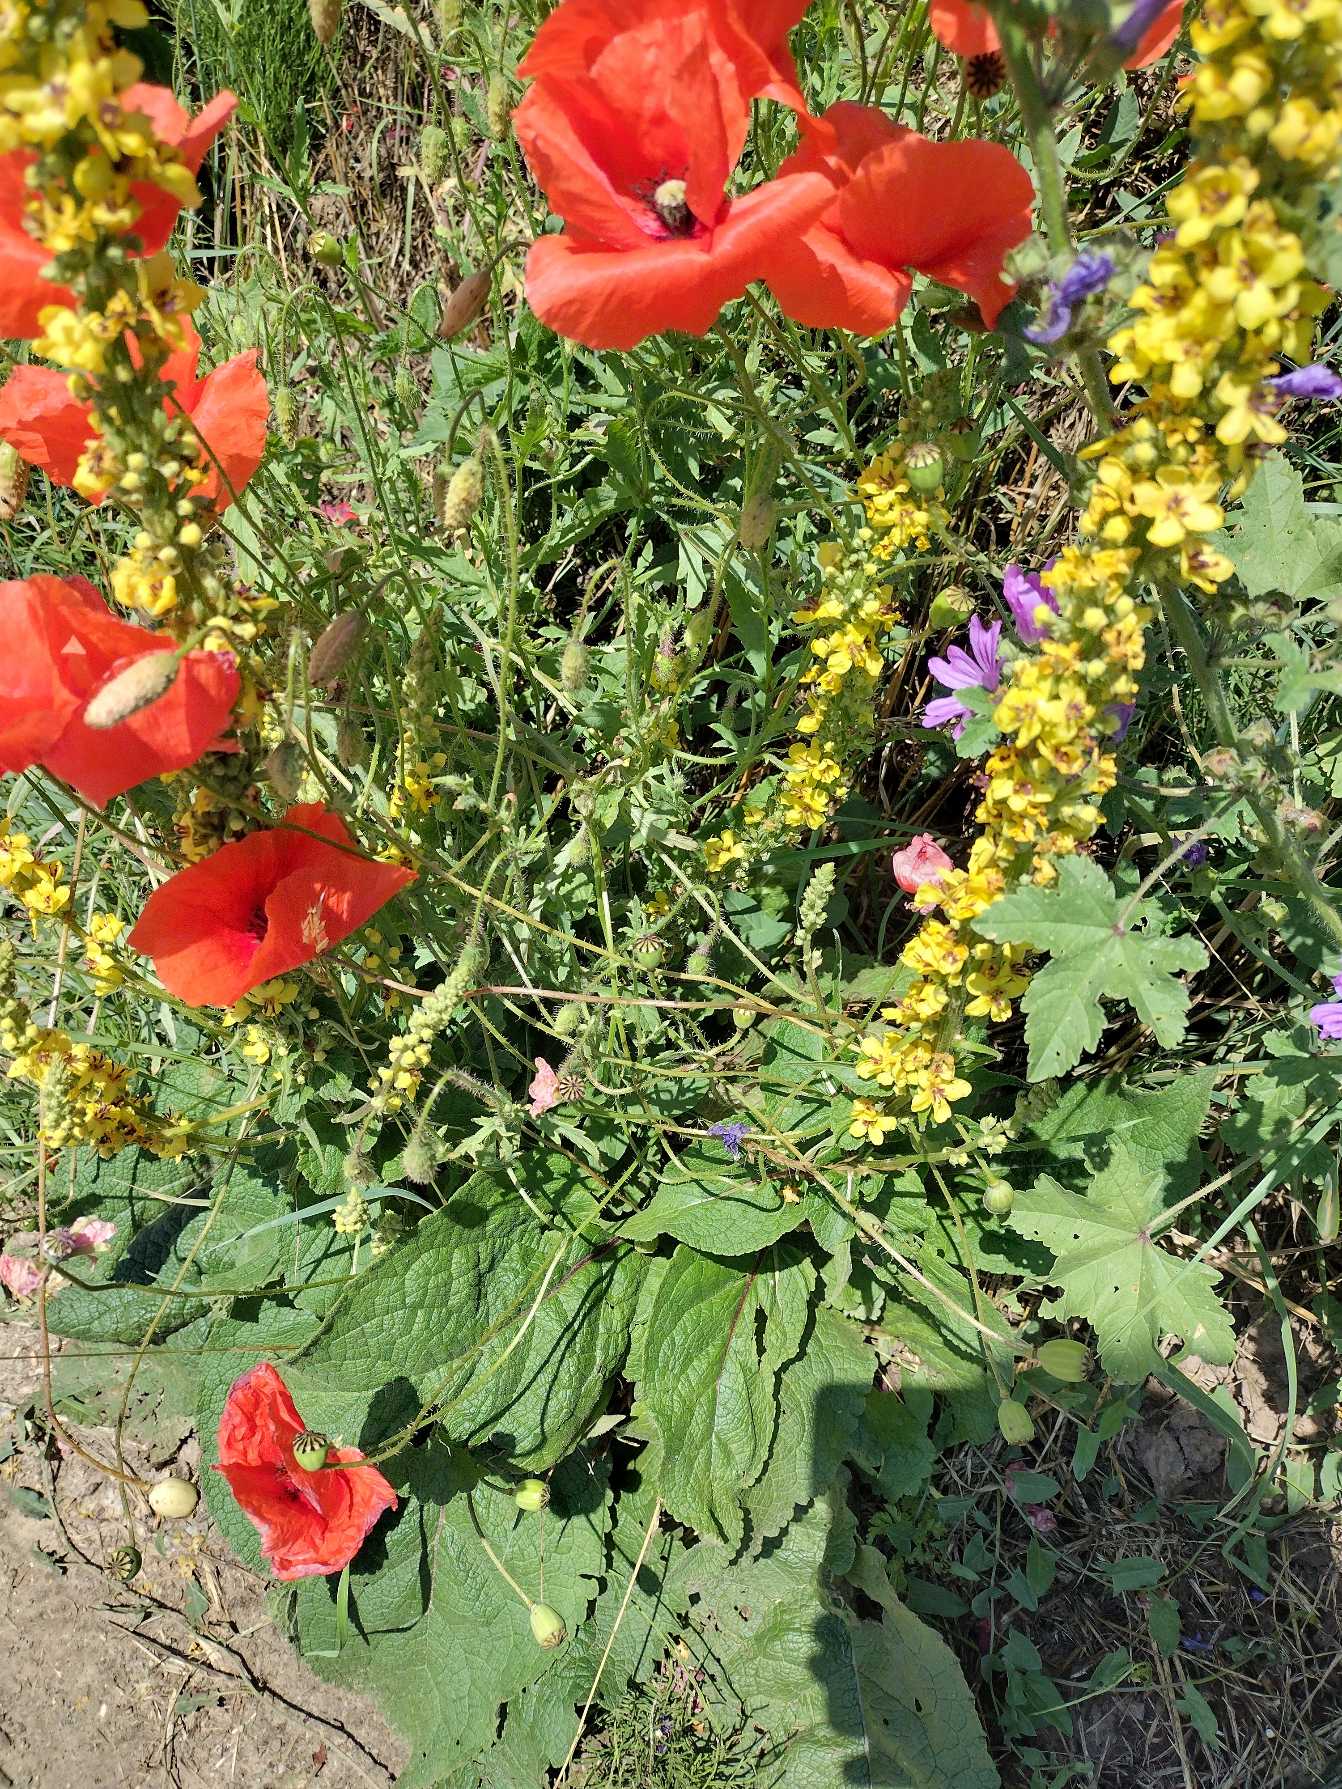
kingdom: Plantae
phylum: Tracheophyta
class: Magnoliopsida
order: Lamiales
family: Scrophulariaceae
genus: Verbascum
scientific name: Verbascum nigrum
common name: Mørk kongelys
